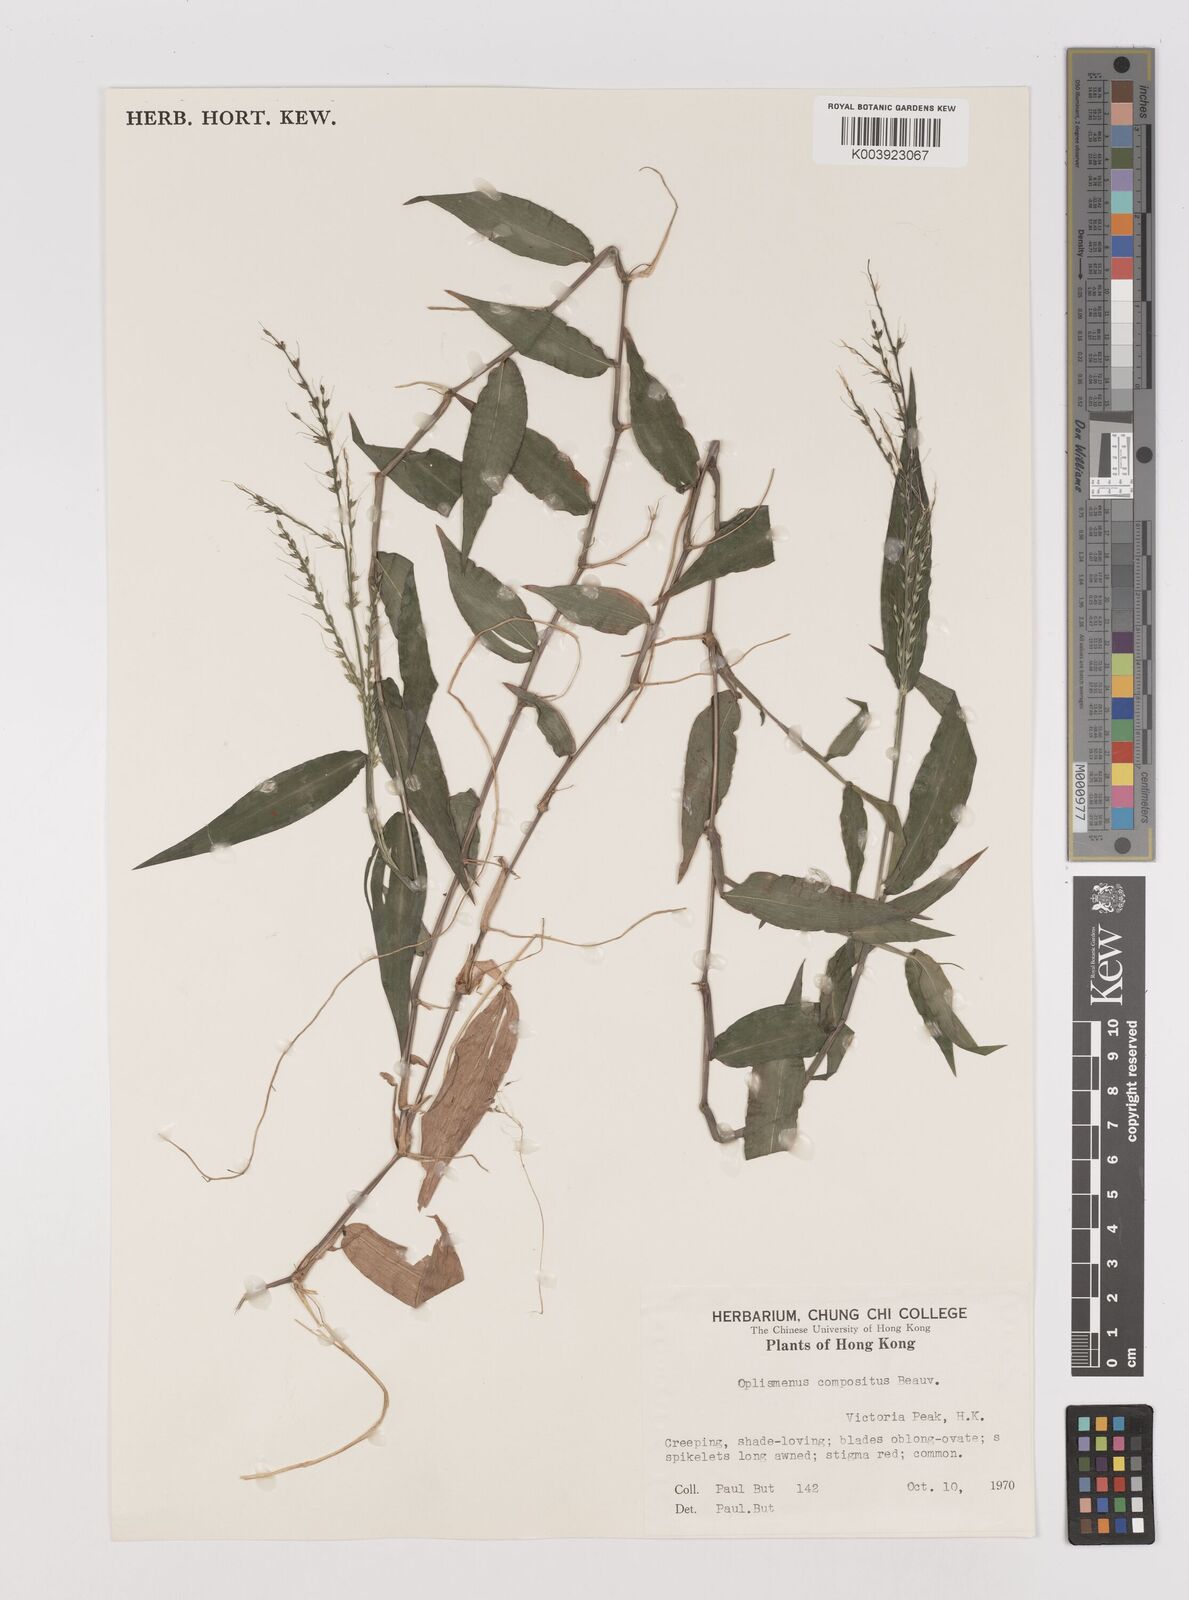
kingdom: Plantae
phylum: Tracheophyta
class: Liliopsida
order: Poales
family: Poaceae
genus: Oplismenus
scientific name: Oplismenus compositus
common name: Running mountain grass
